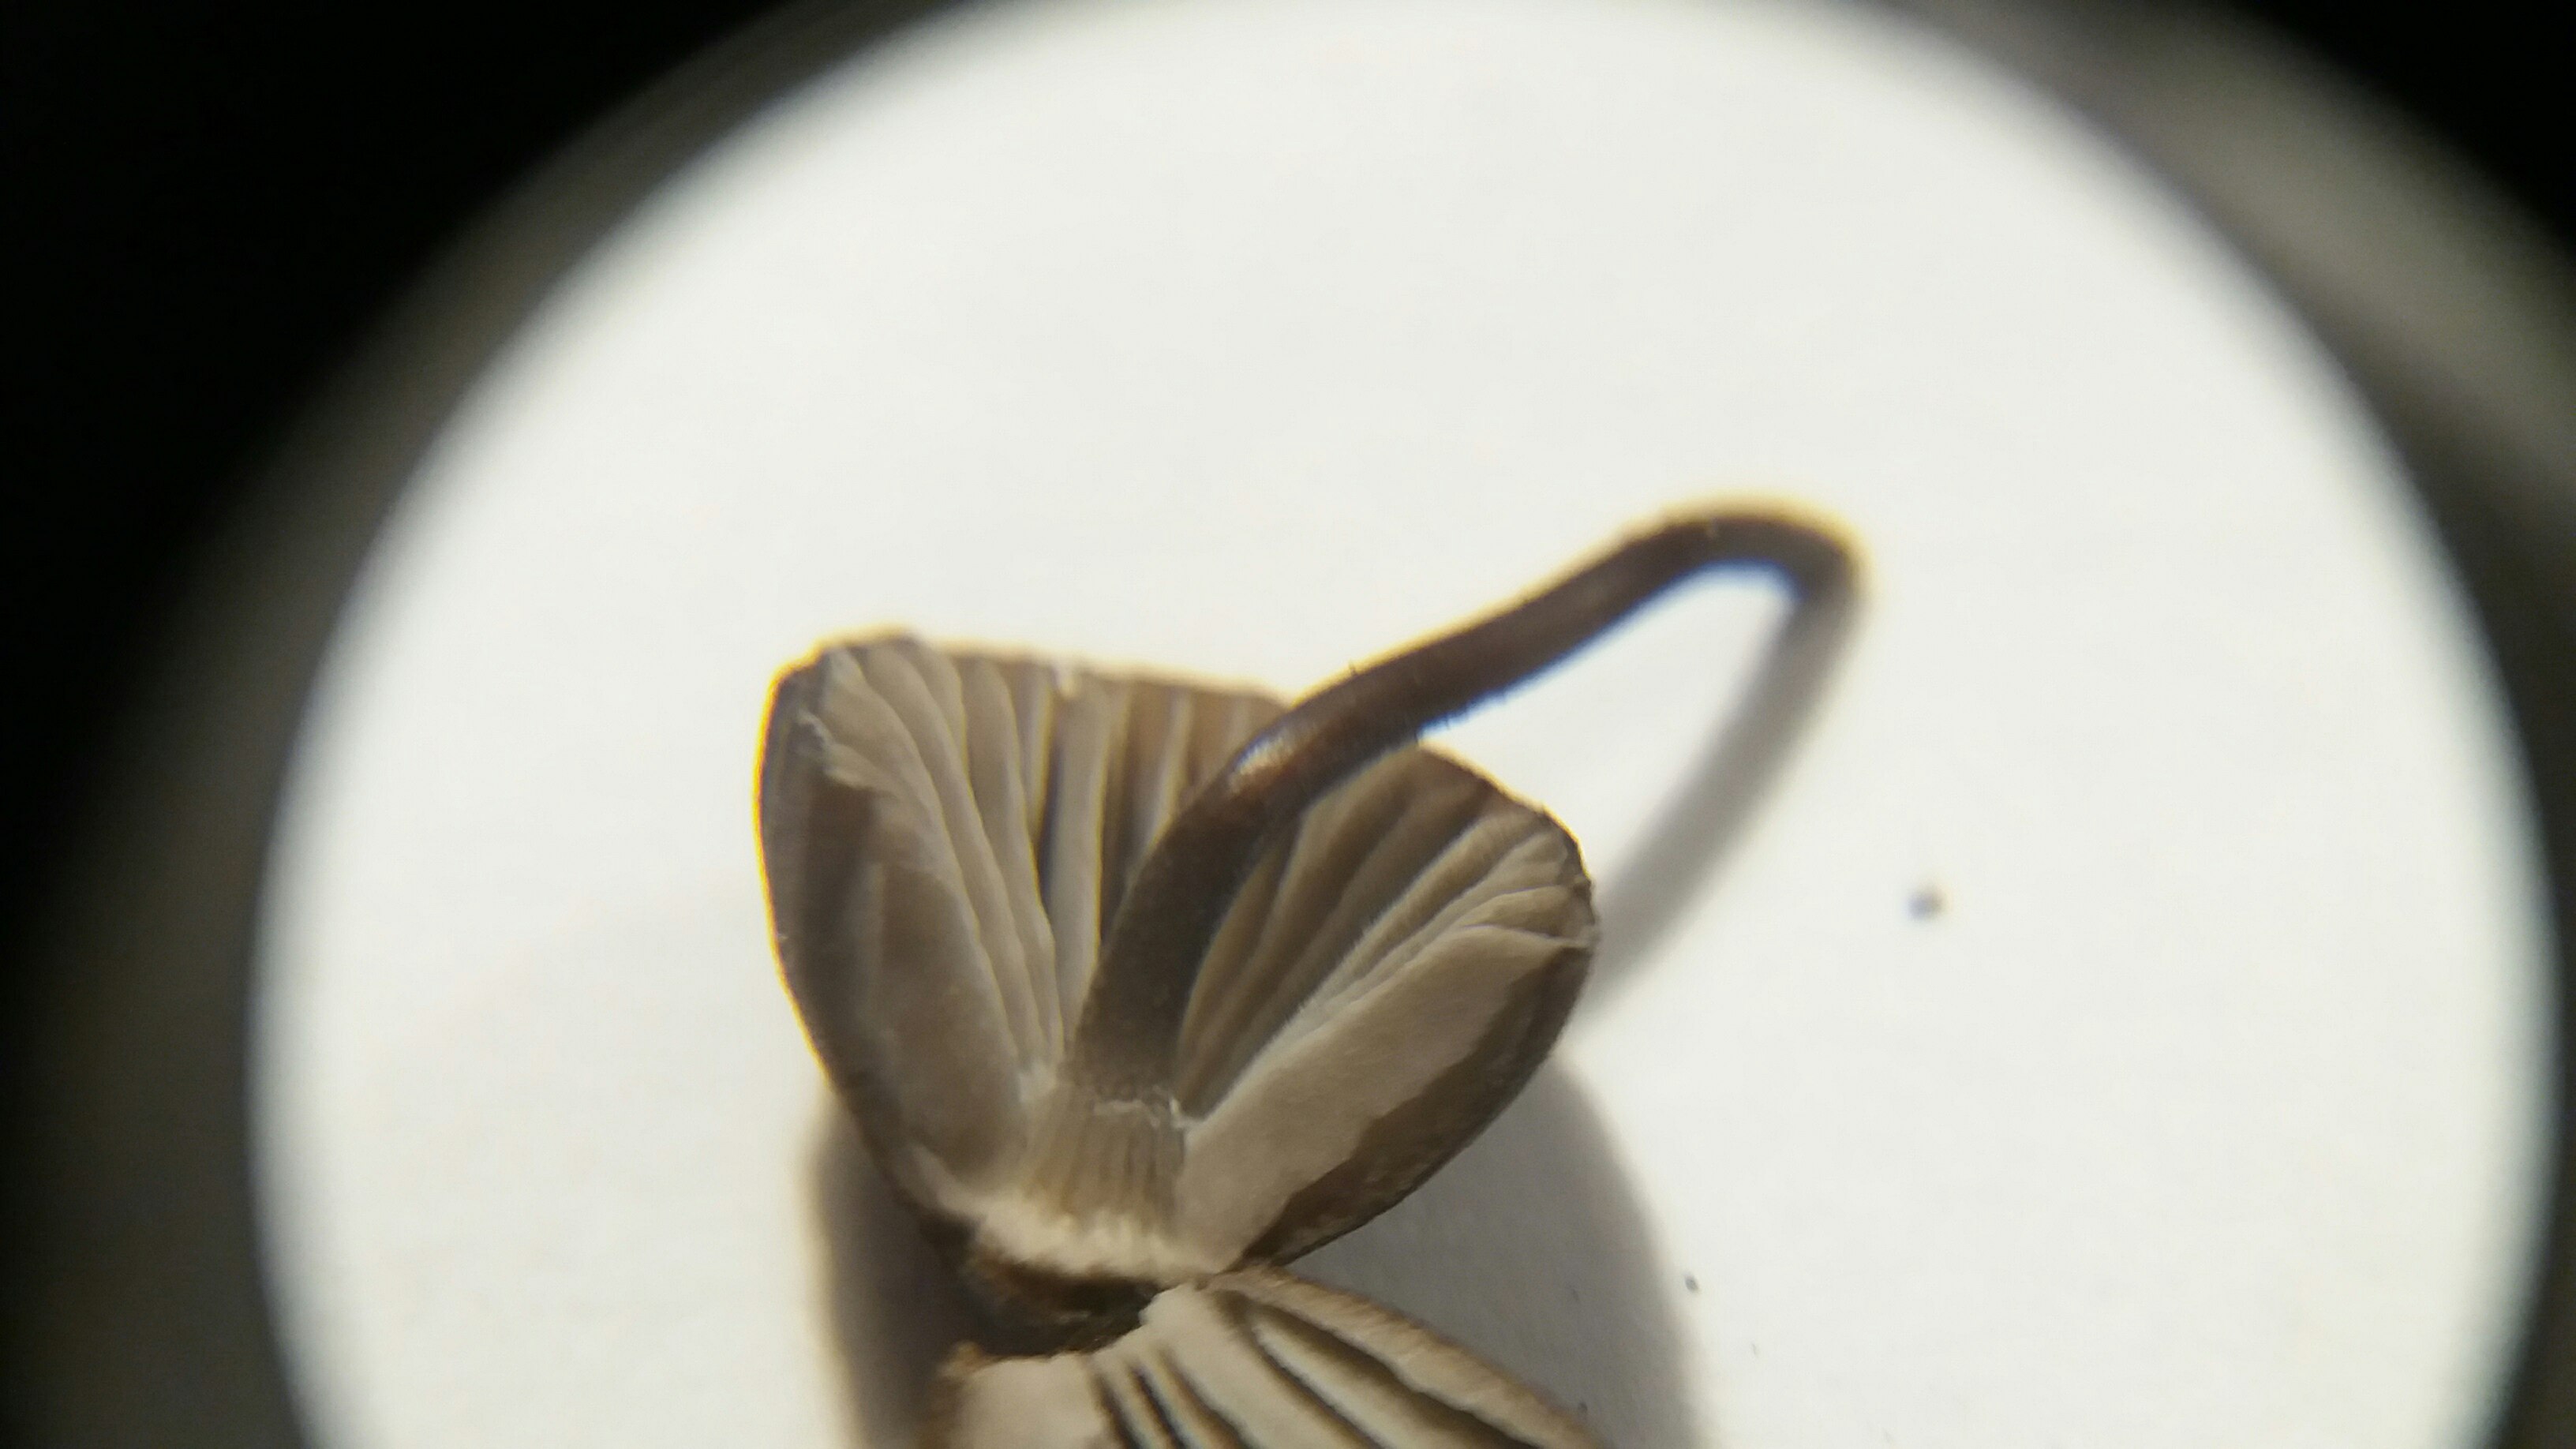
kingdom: Fungi
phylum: Basidiomycota
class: Agaricomycetes
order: Agaricales
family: Mycenaceae
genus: Mycena
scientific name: Mycena galopus
